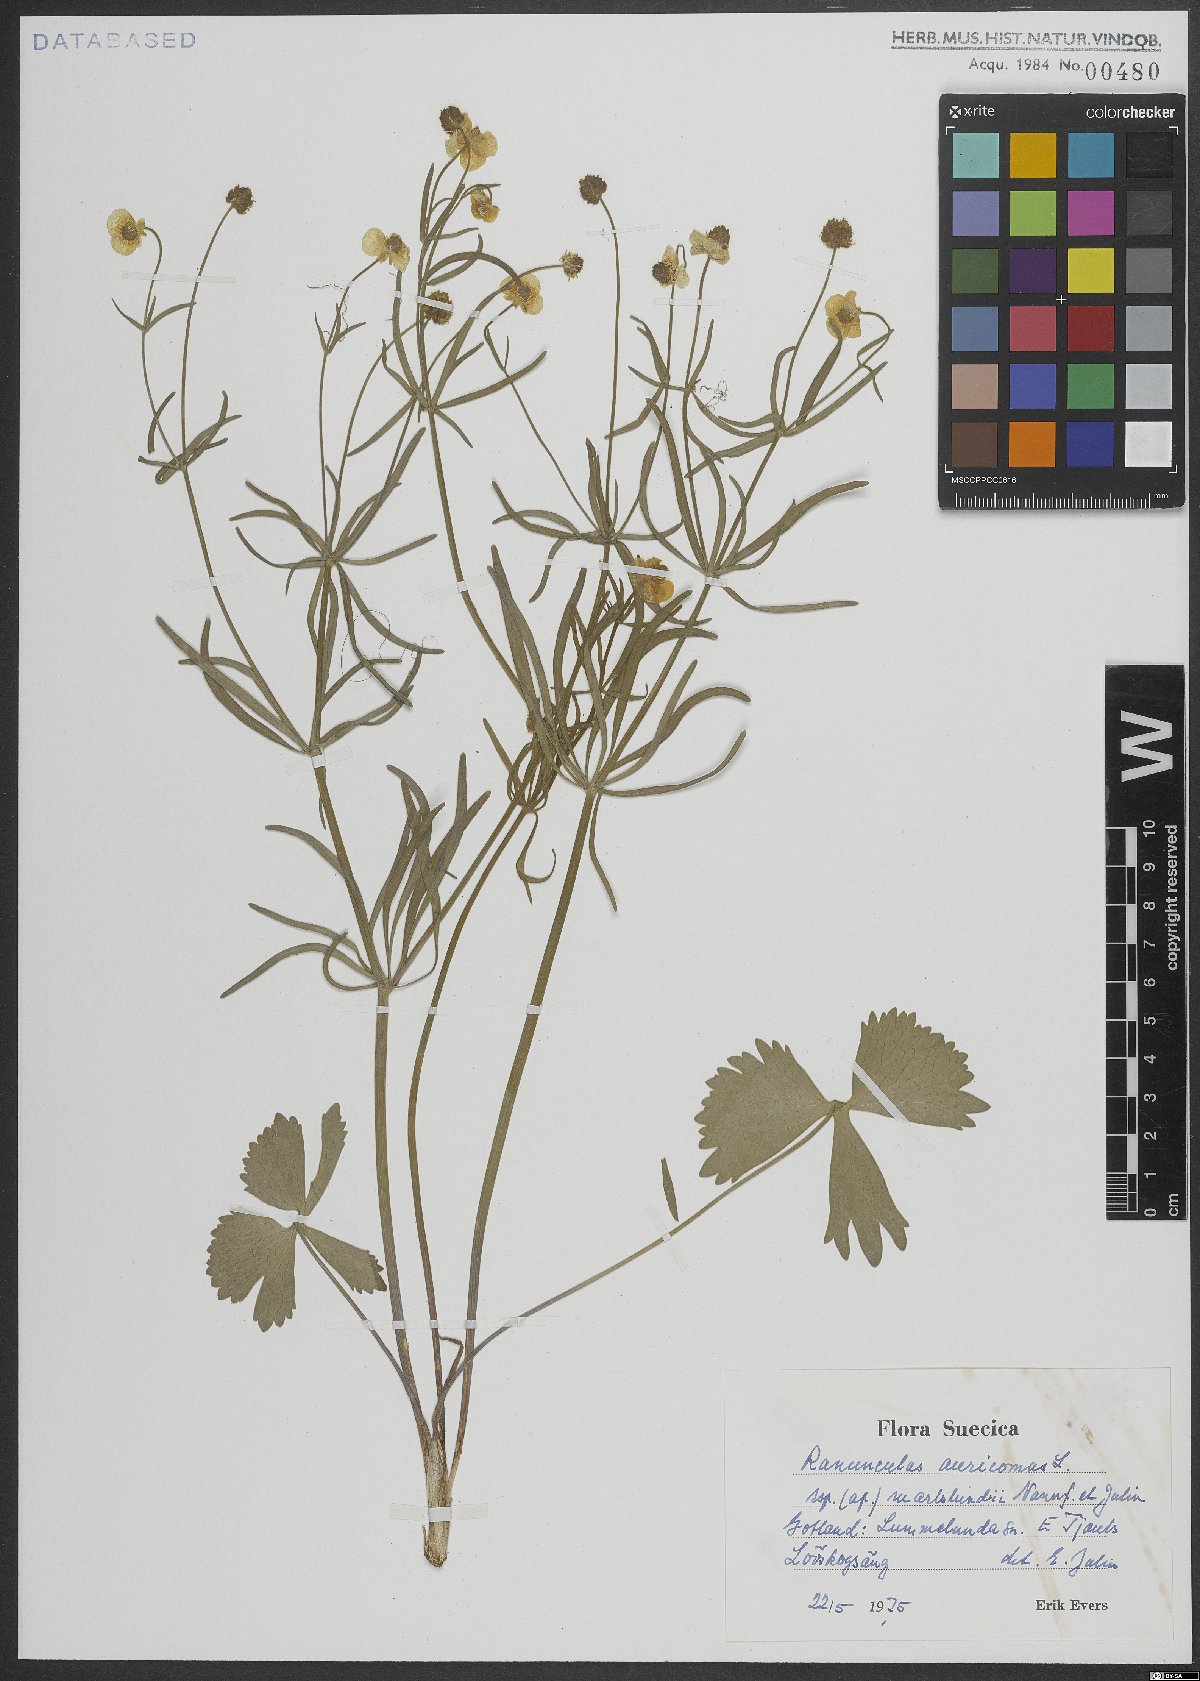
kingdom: Plantae
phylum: Tracheophyta
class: Magnoliopsida
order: Ranunculales
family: Ranunculaceae
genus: Ranunculus
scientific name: Ranunculus auricomus
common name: Goldilocks buttercup
